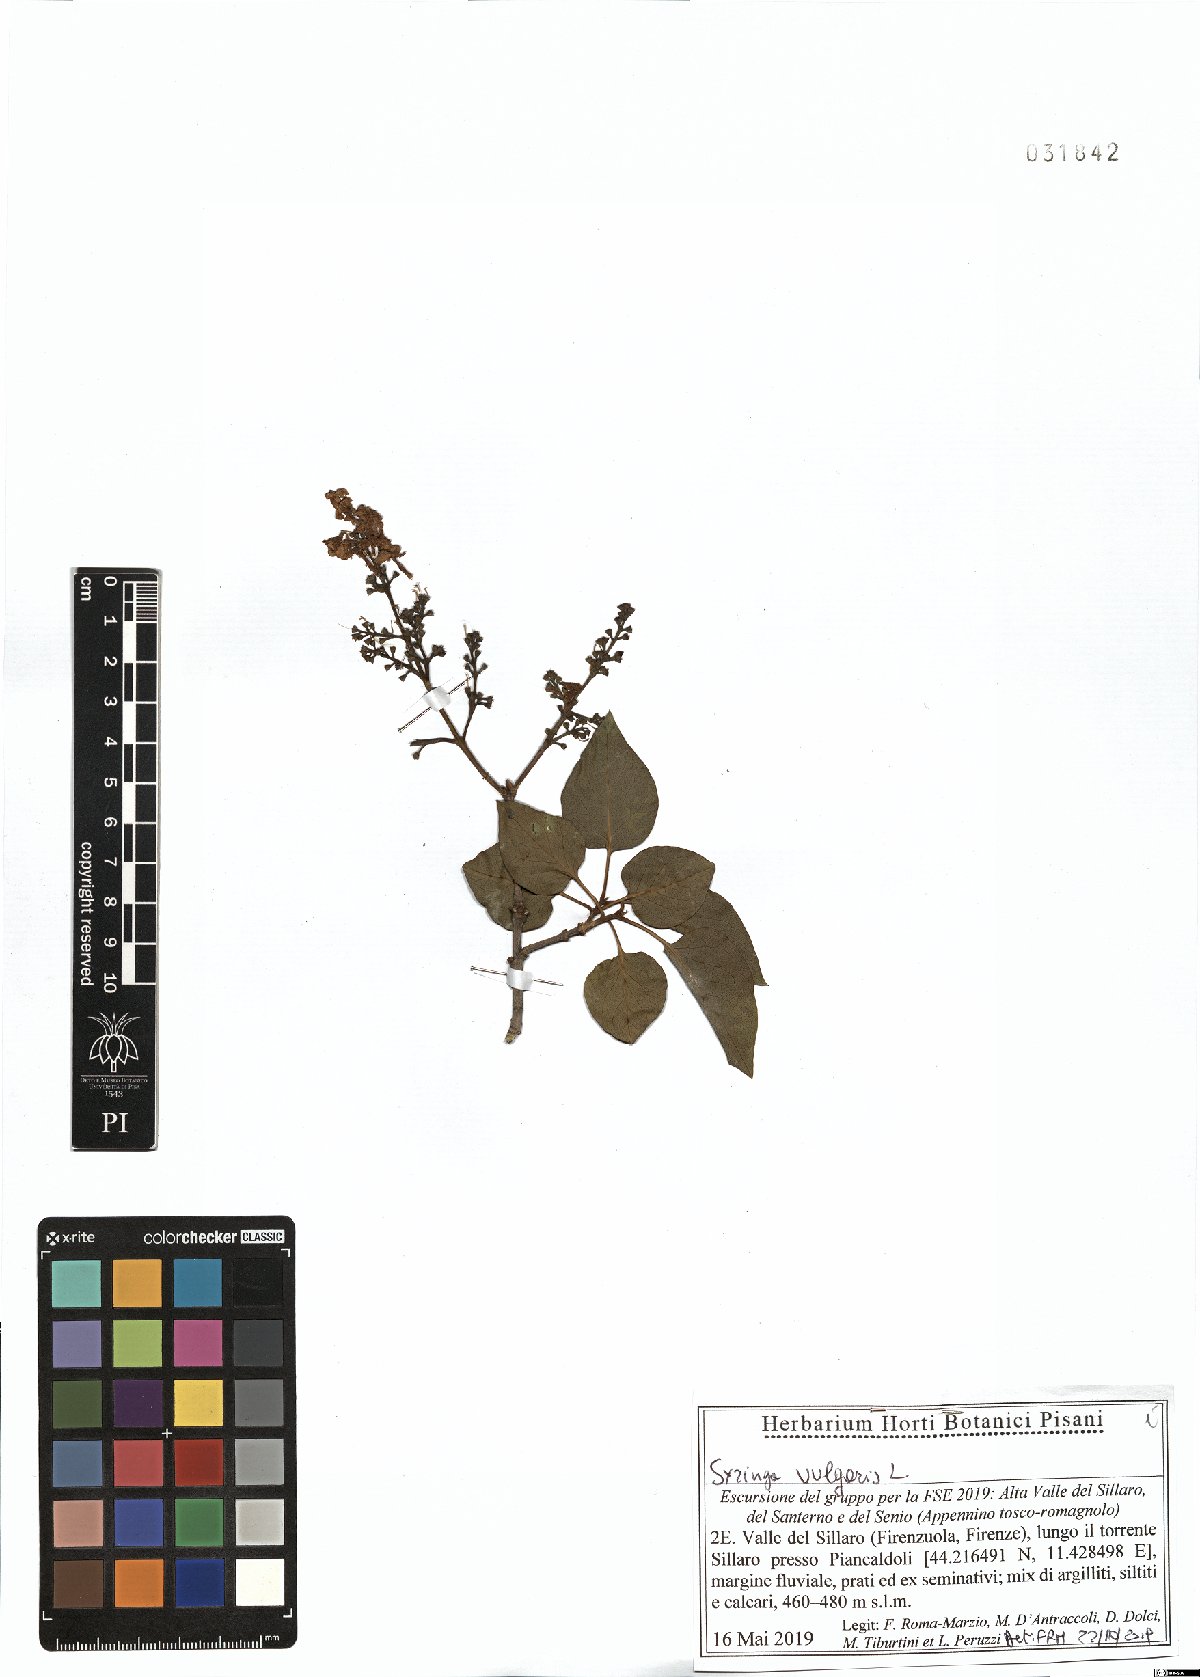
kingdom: Plantae
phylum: Tracheophyta
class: Magnoliopsida
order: Lamiales
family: Oleaceae
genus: Syringa
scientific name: Syringa vulgaris
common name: Common lilac
